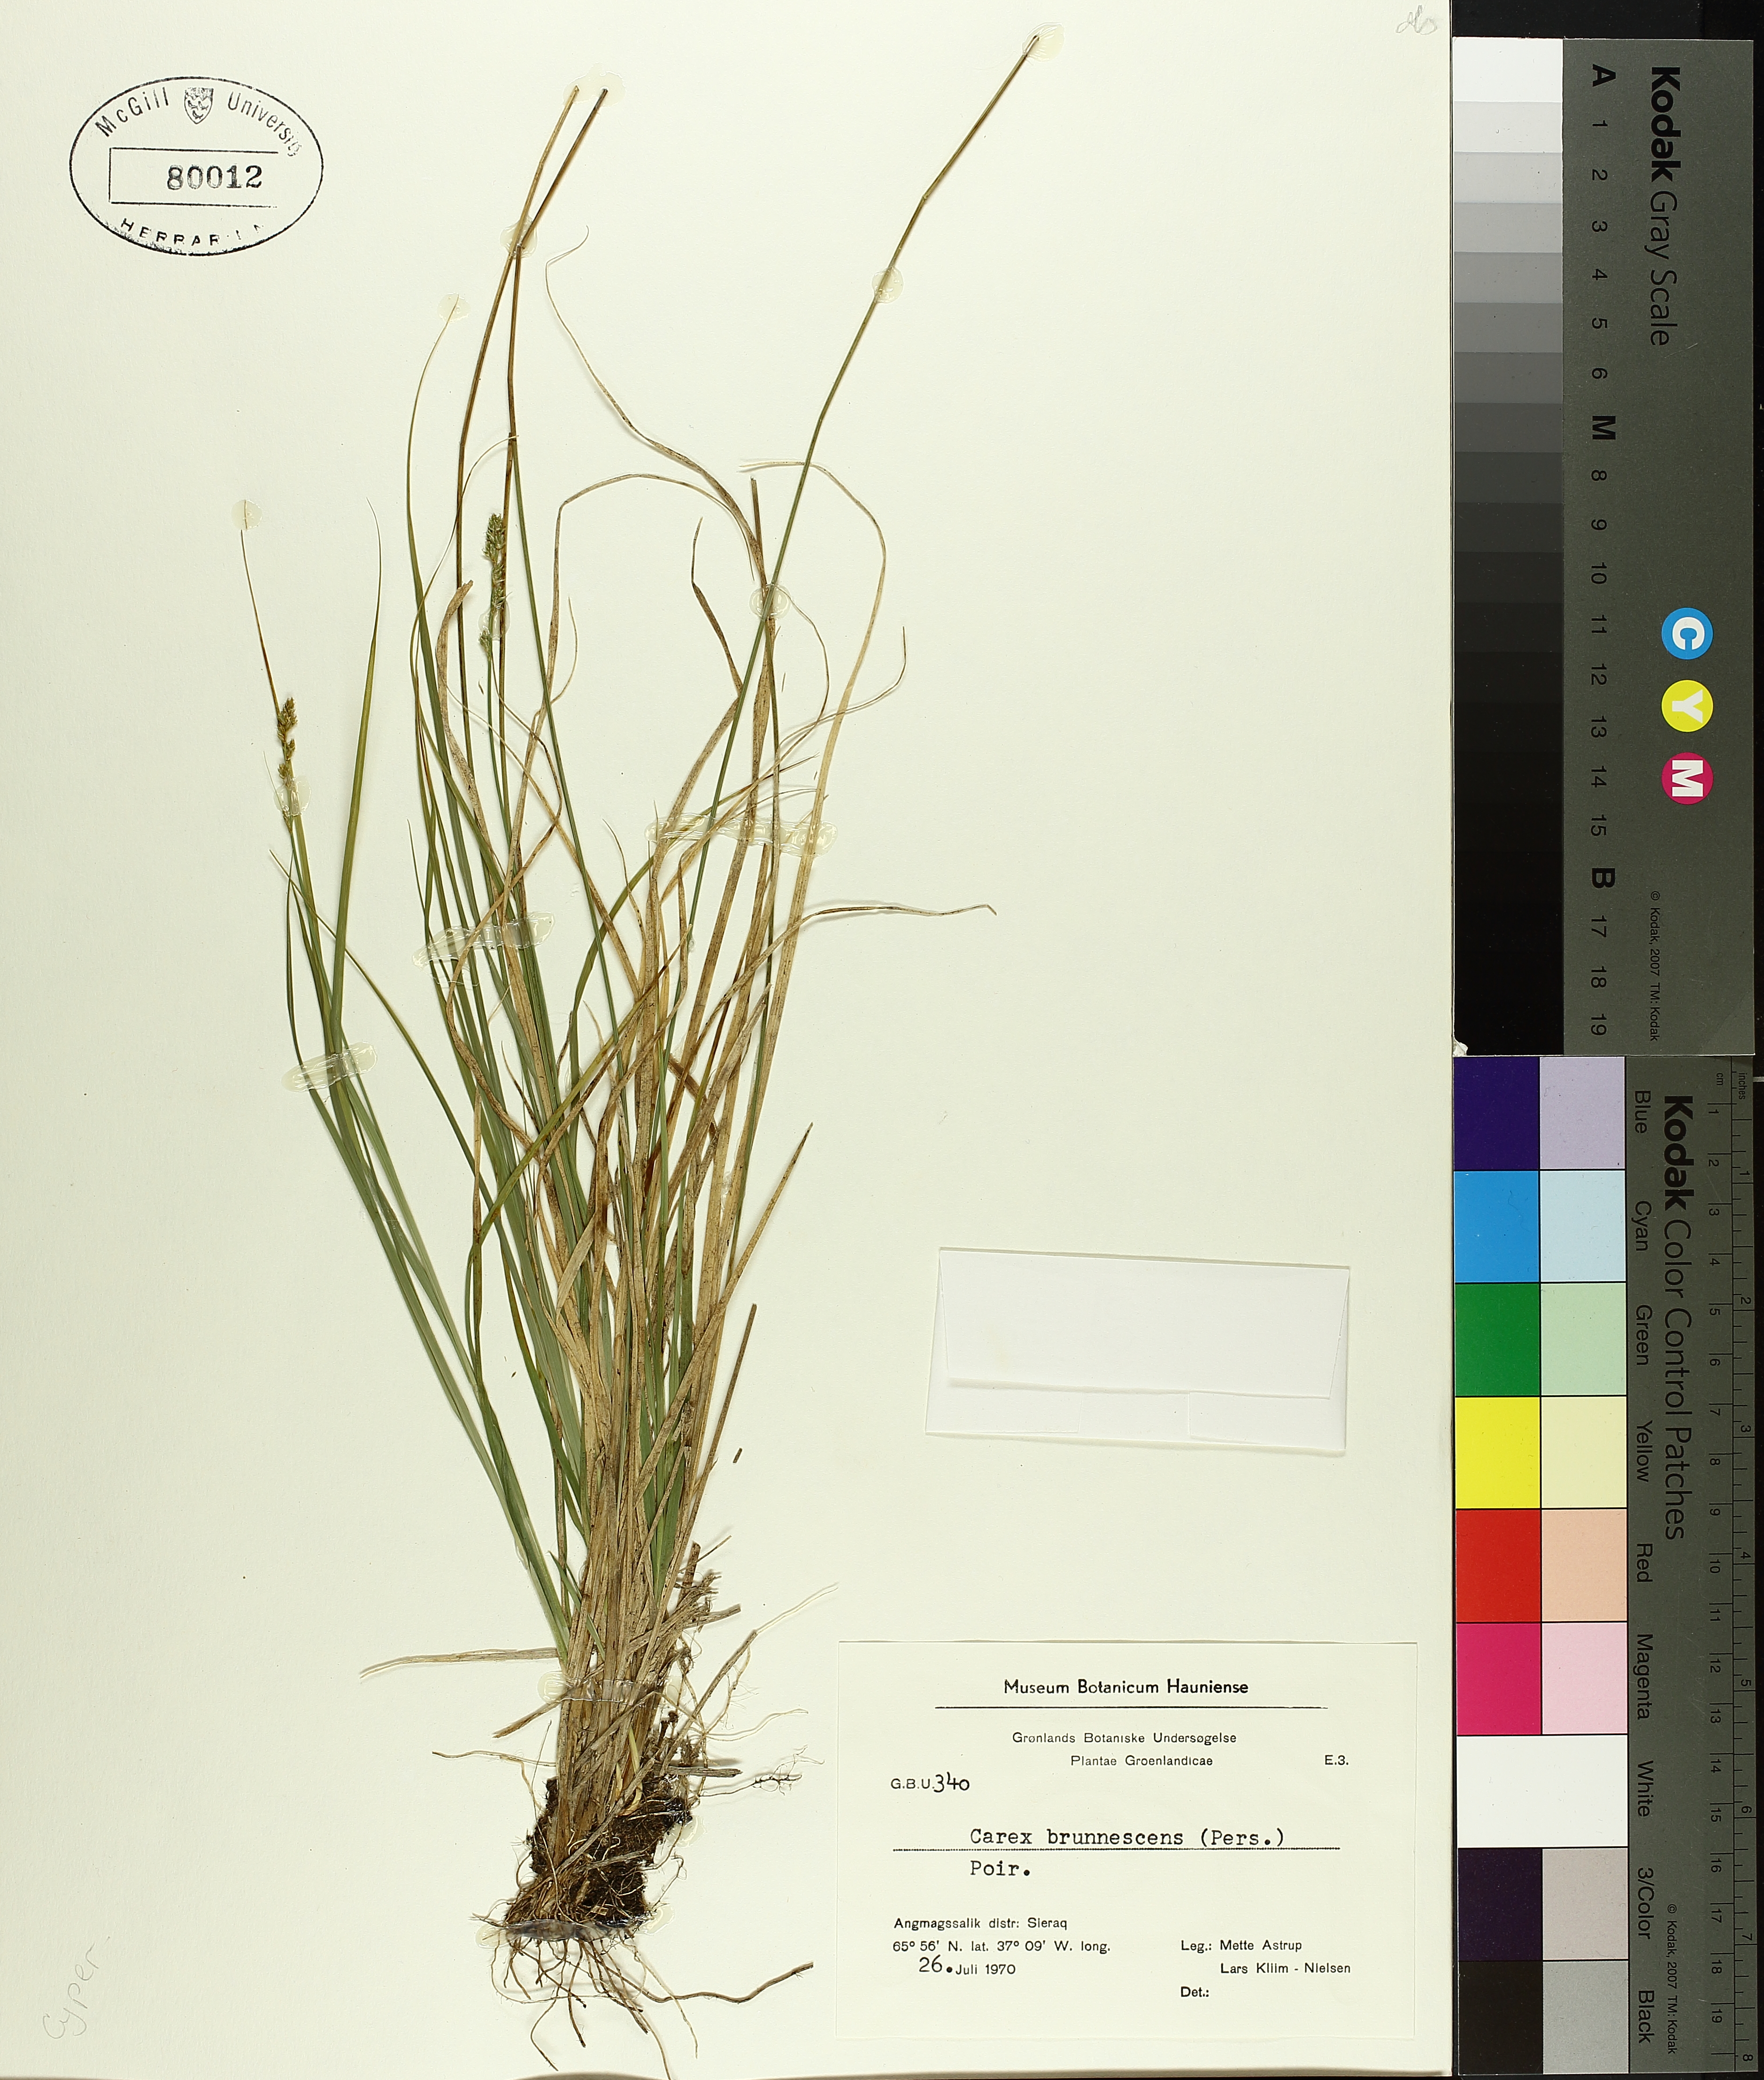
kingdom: Plantae
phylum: Tracheophyta
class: Liliopsida
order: Poales
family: Cyperaceae
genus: Carex
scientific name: Carex brunnescens
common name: Brown sedge
